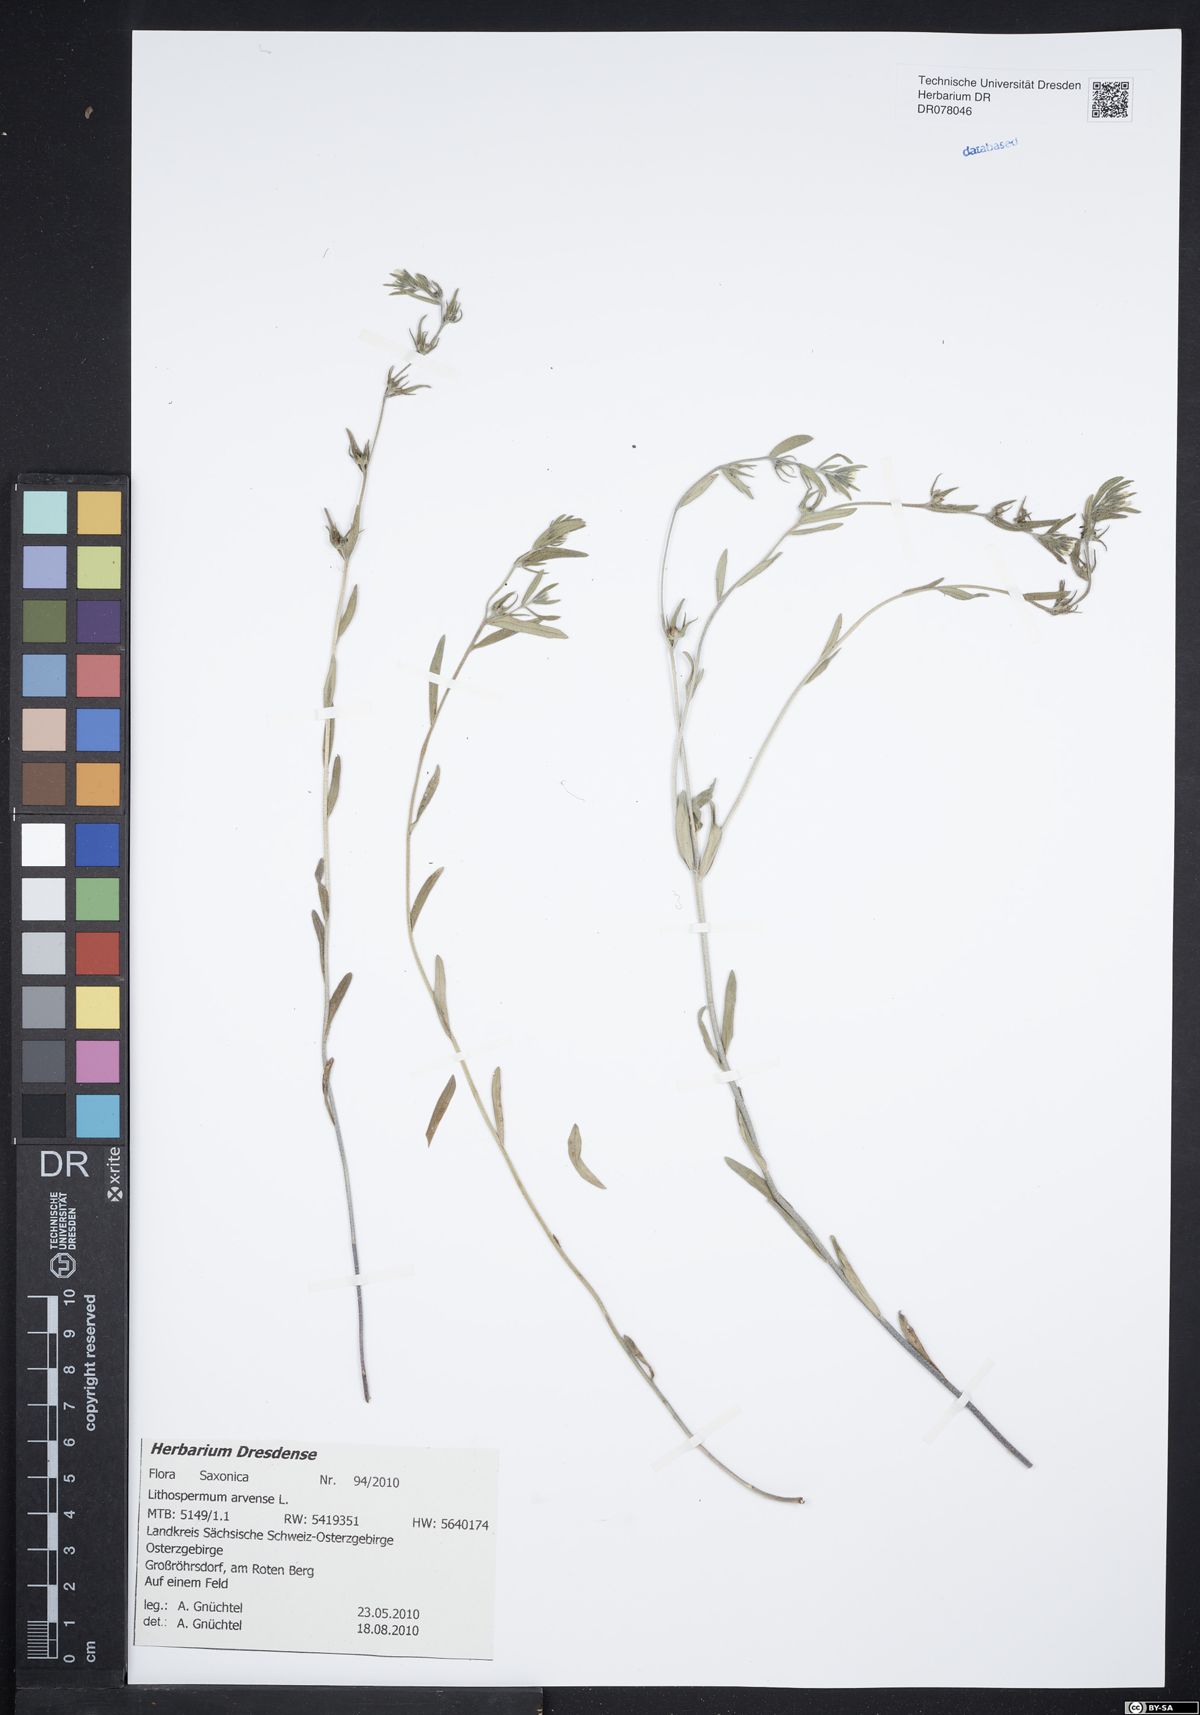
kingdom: Plantae
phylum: Tracheophyta
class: Magnoliopsida
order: Boraginales
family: Boraginaceae
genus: Buglossoides
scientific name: Buglossoides arvensis
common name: Corn gromwell
